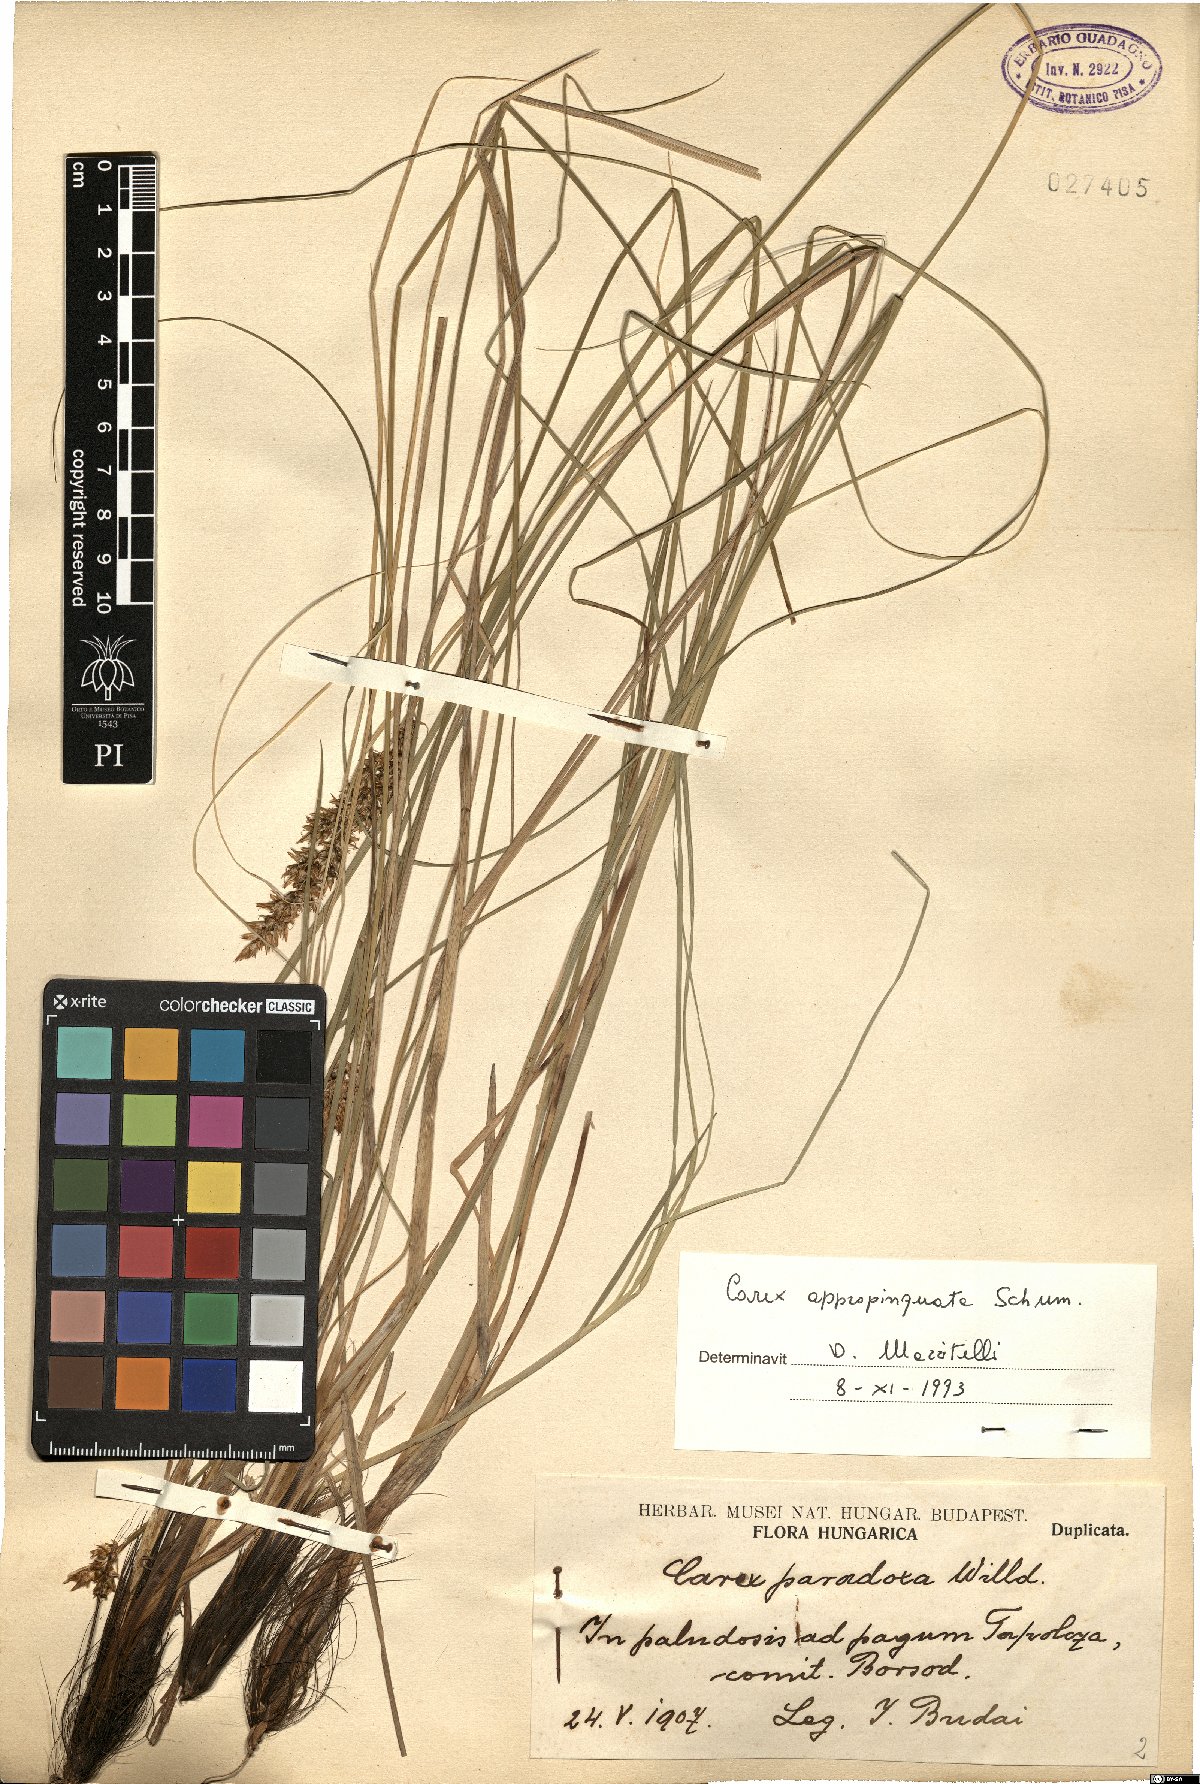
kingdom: Plantae
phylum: Tracheophyta
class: Liliopsida
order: Poales
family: Cyperaceae
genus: Carex
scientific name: Carex appropinquata
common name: Fibrous tussock-sedge
